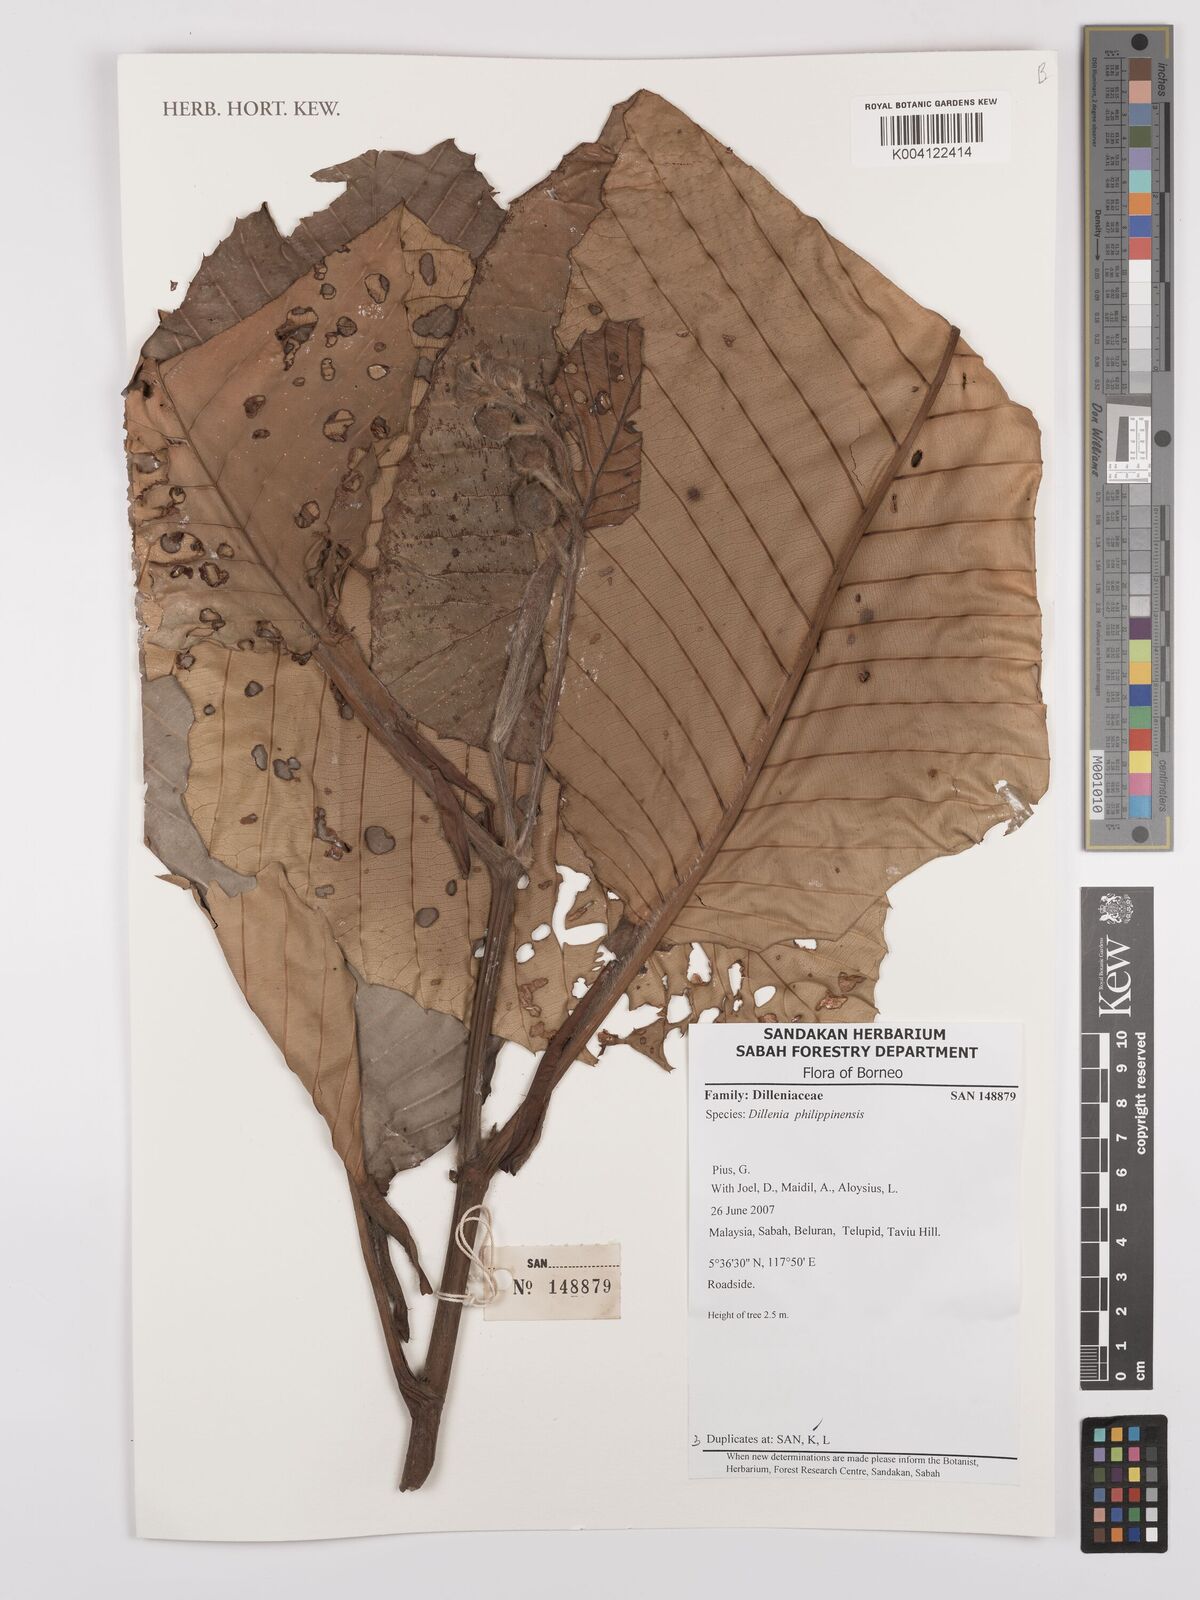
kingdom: Plantae
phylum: Tracheophyta
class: Magnoliopsida
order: Dilleniales
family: Dilleniaceae
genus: Dillenia
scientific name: Dillenia philippinensis
